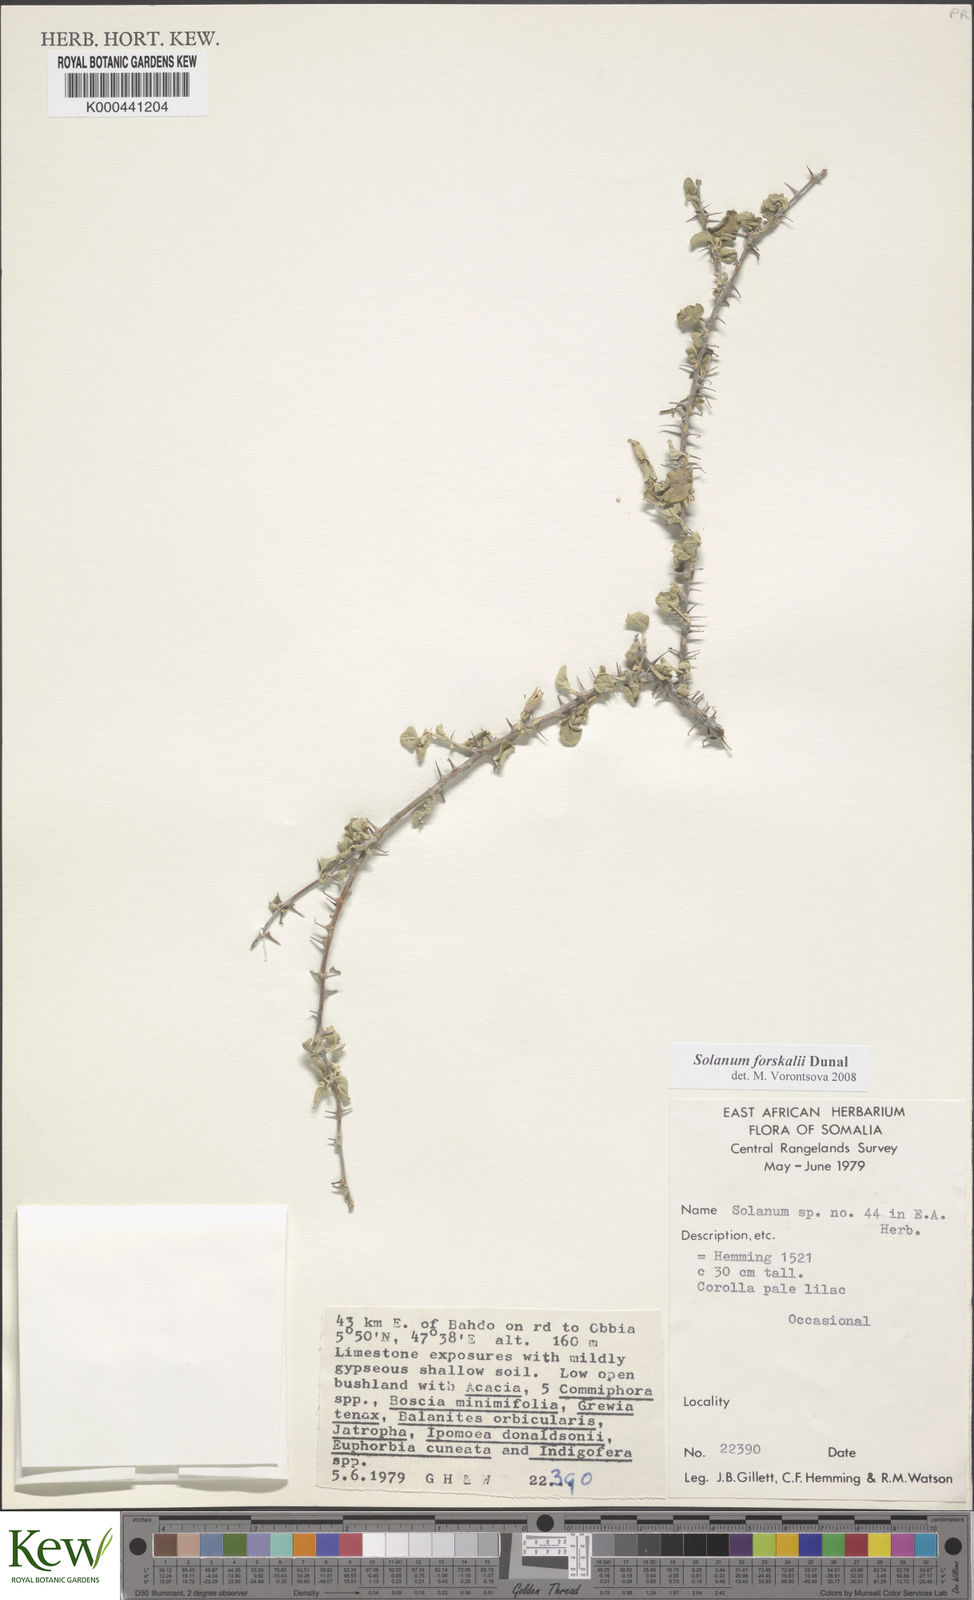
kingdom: Plantae
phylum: Tracheophyta
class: Magnoliopsida
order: Solanales
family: Solanaceae
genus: Solanum
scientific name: Solanum
